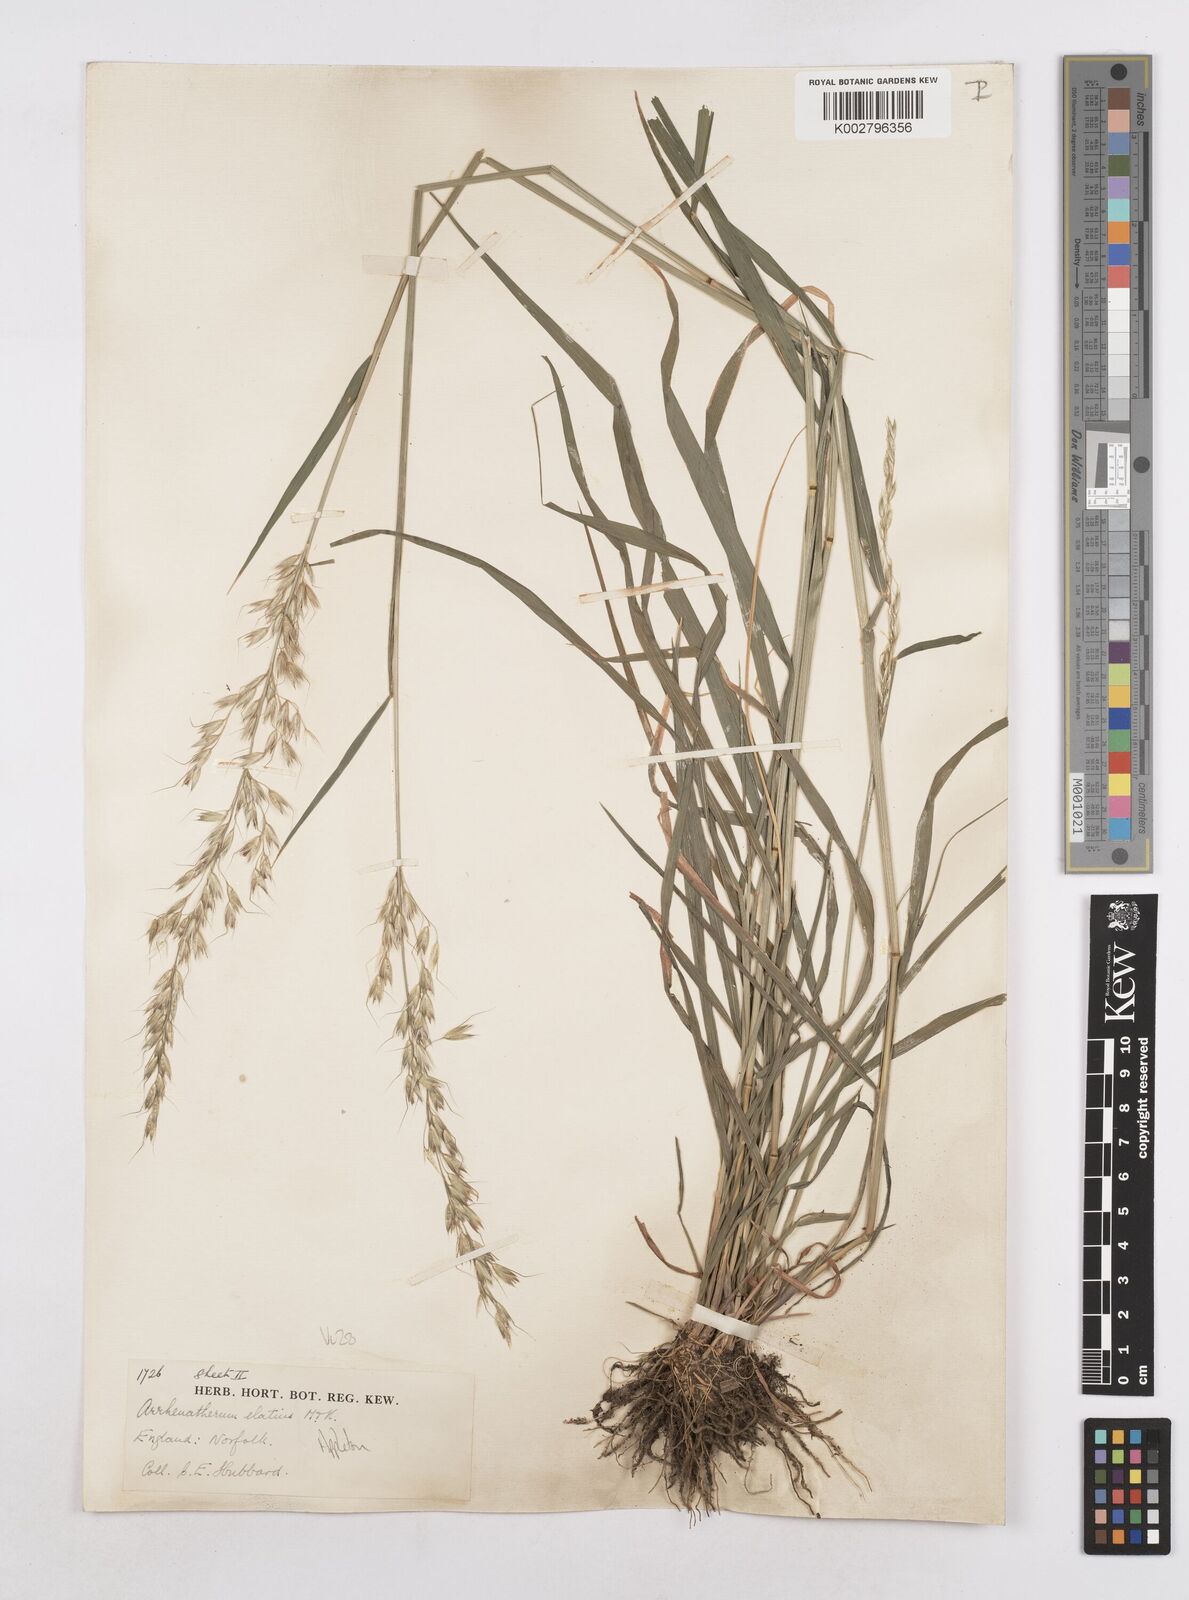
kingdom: Plantae
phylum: Tracheophyta
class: Liliopsida
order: Poales
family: Poaceae
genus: Arrhenatherum
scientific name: Arrhenatherum elatius
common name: Tall oatgrass
